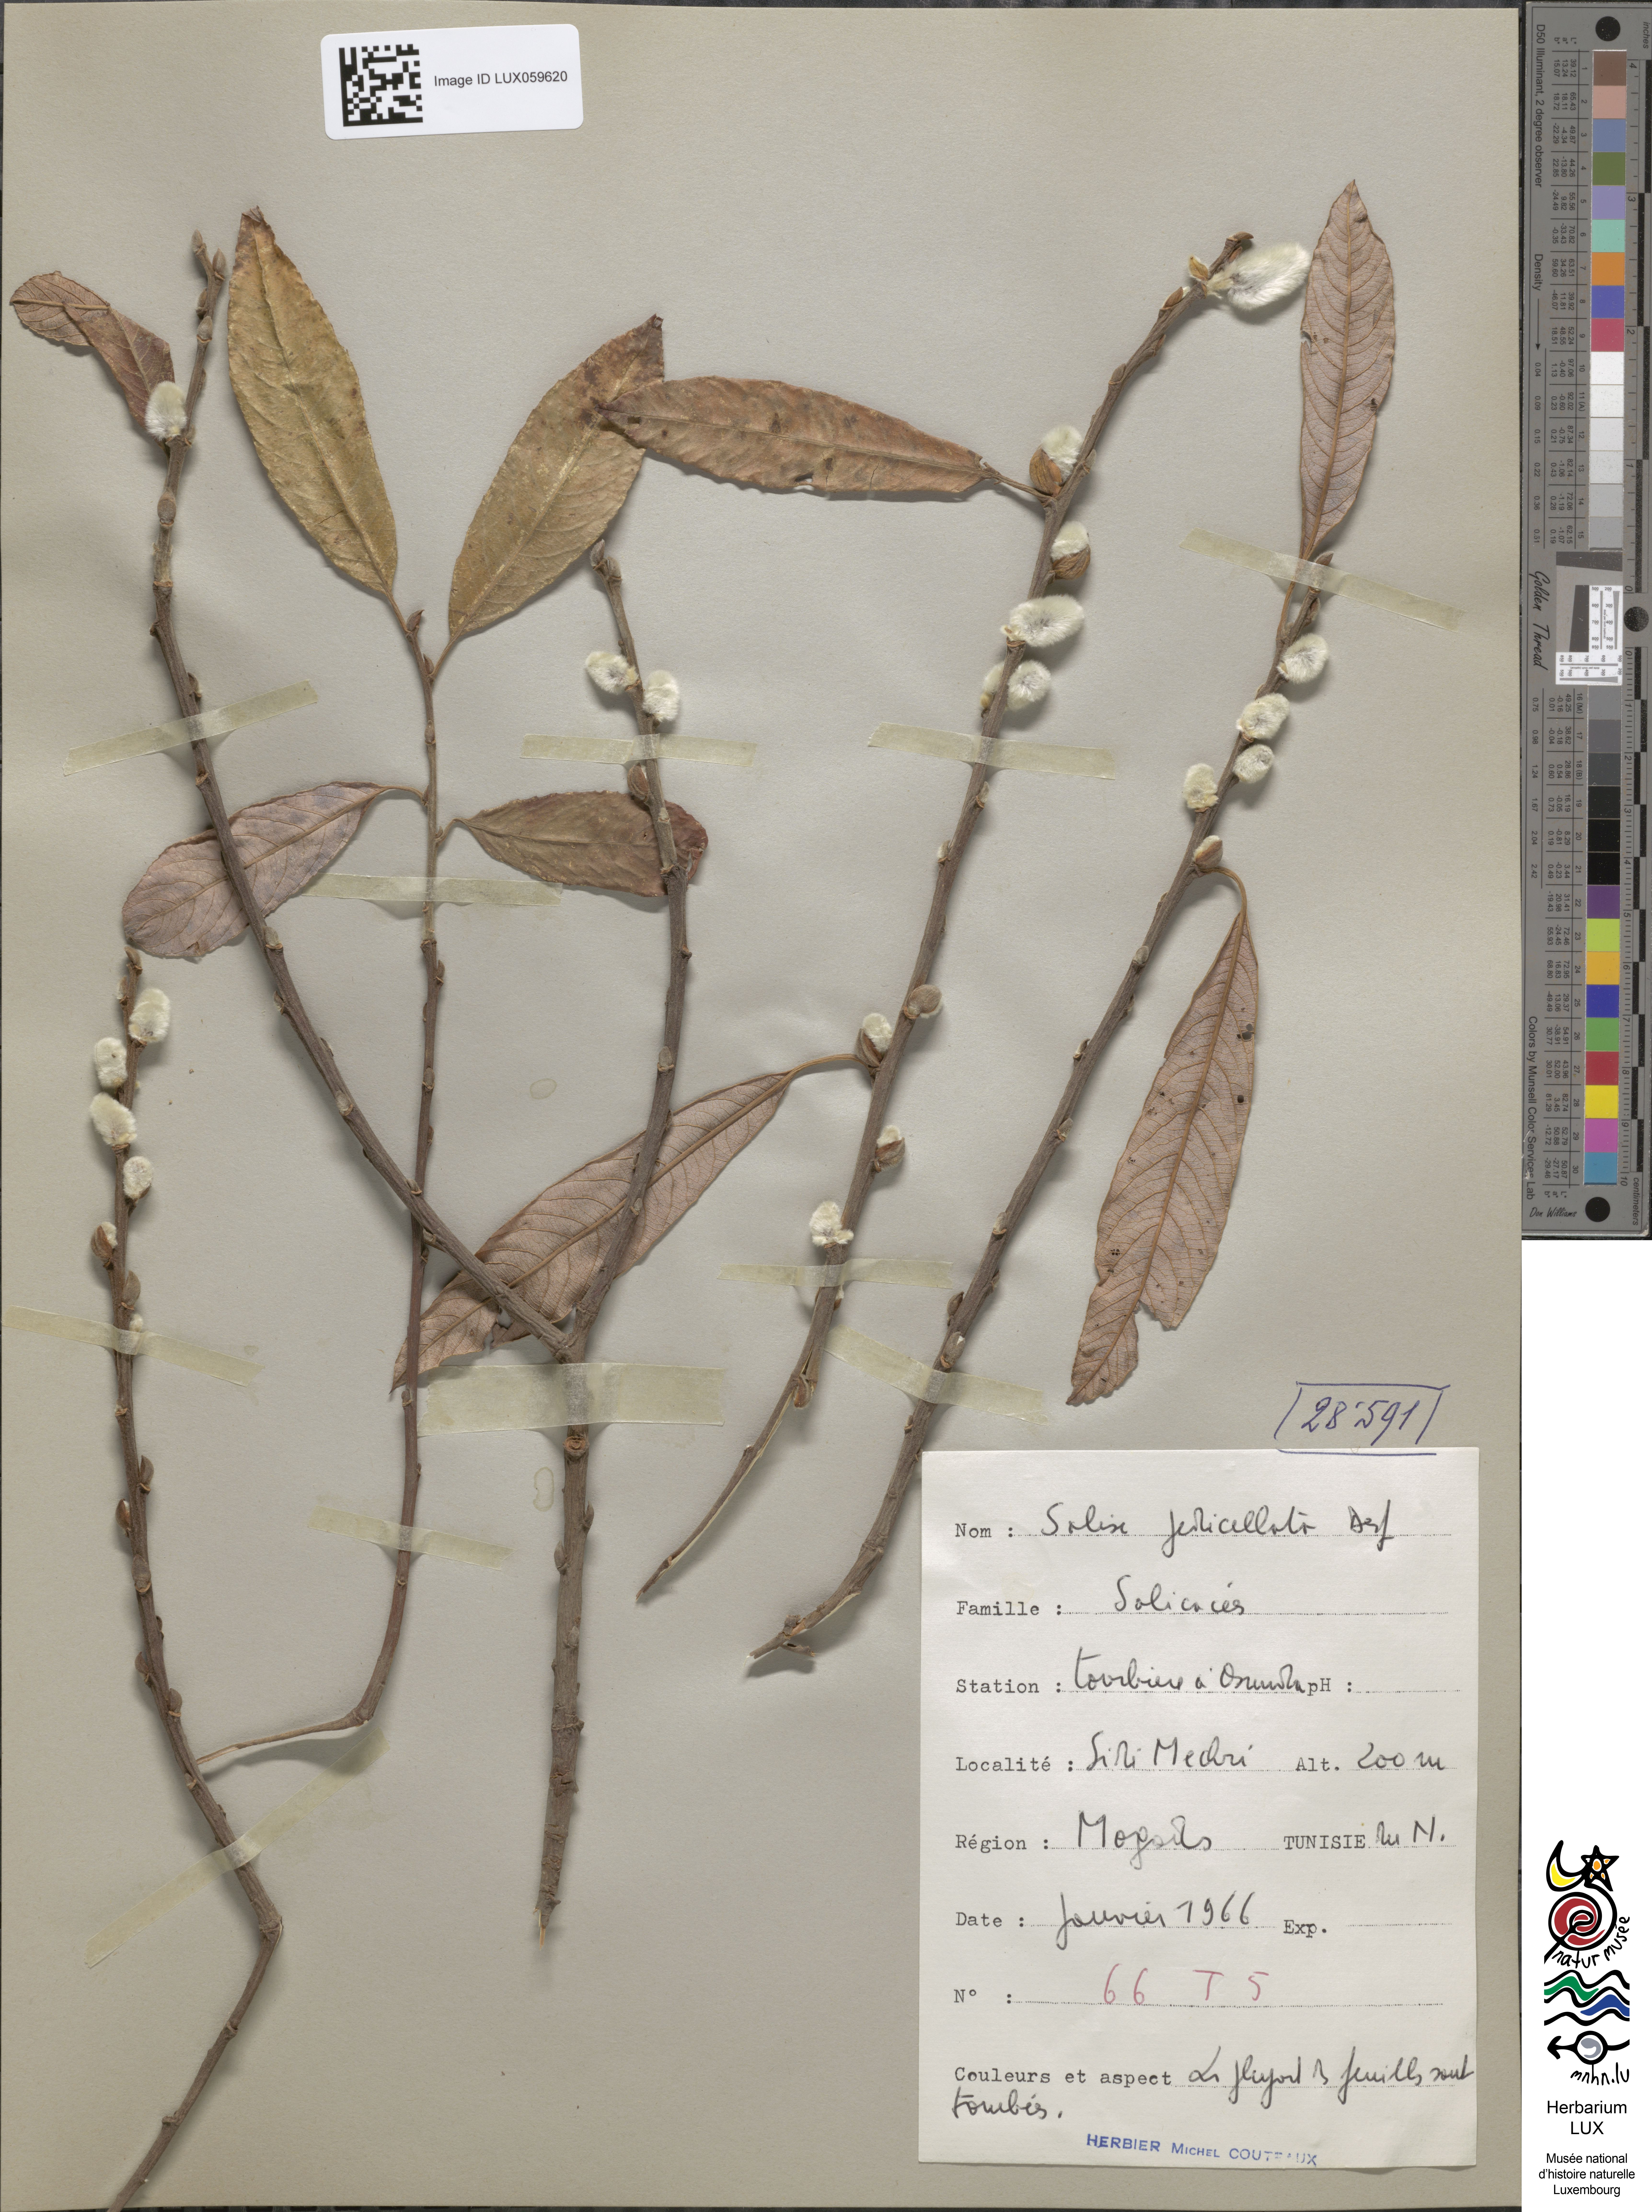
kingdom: Plantae
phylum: Tracheophyta
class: Magnoliopsida
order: Malpighiales
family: Salicaceae
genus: Salix
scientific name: Salix pedicellata
